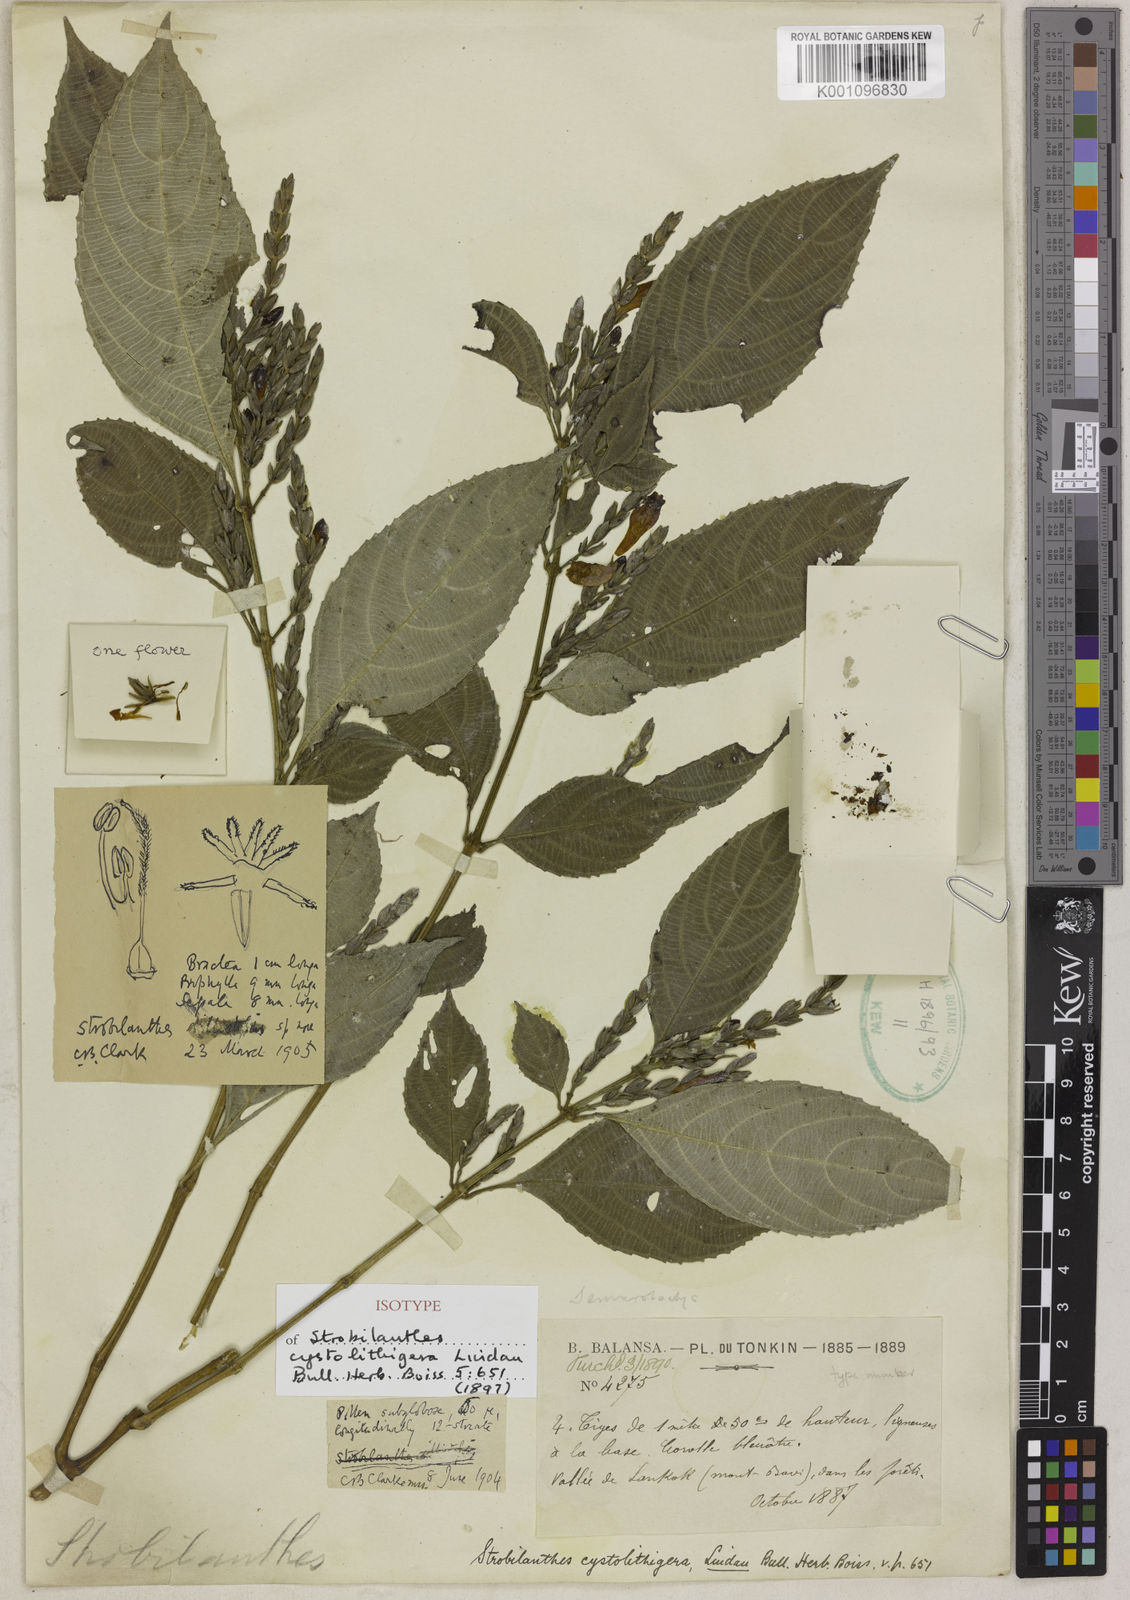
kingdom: Plantae
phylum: Tracheophyta
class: Magnoliopsida
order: Lamiales
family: Acanthaceae
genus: Strobilanthes
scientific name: Strobilanthes cystolithigera
